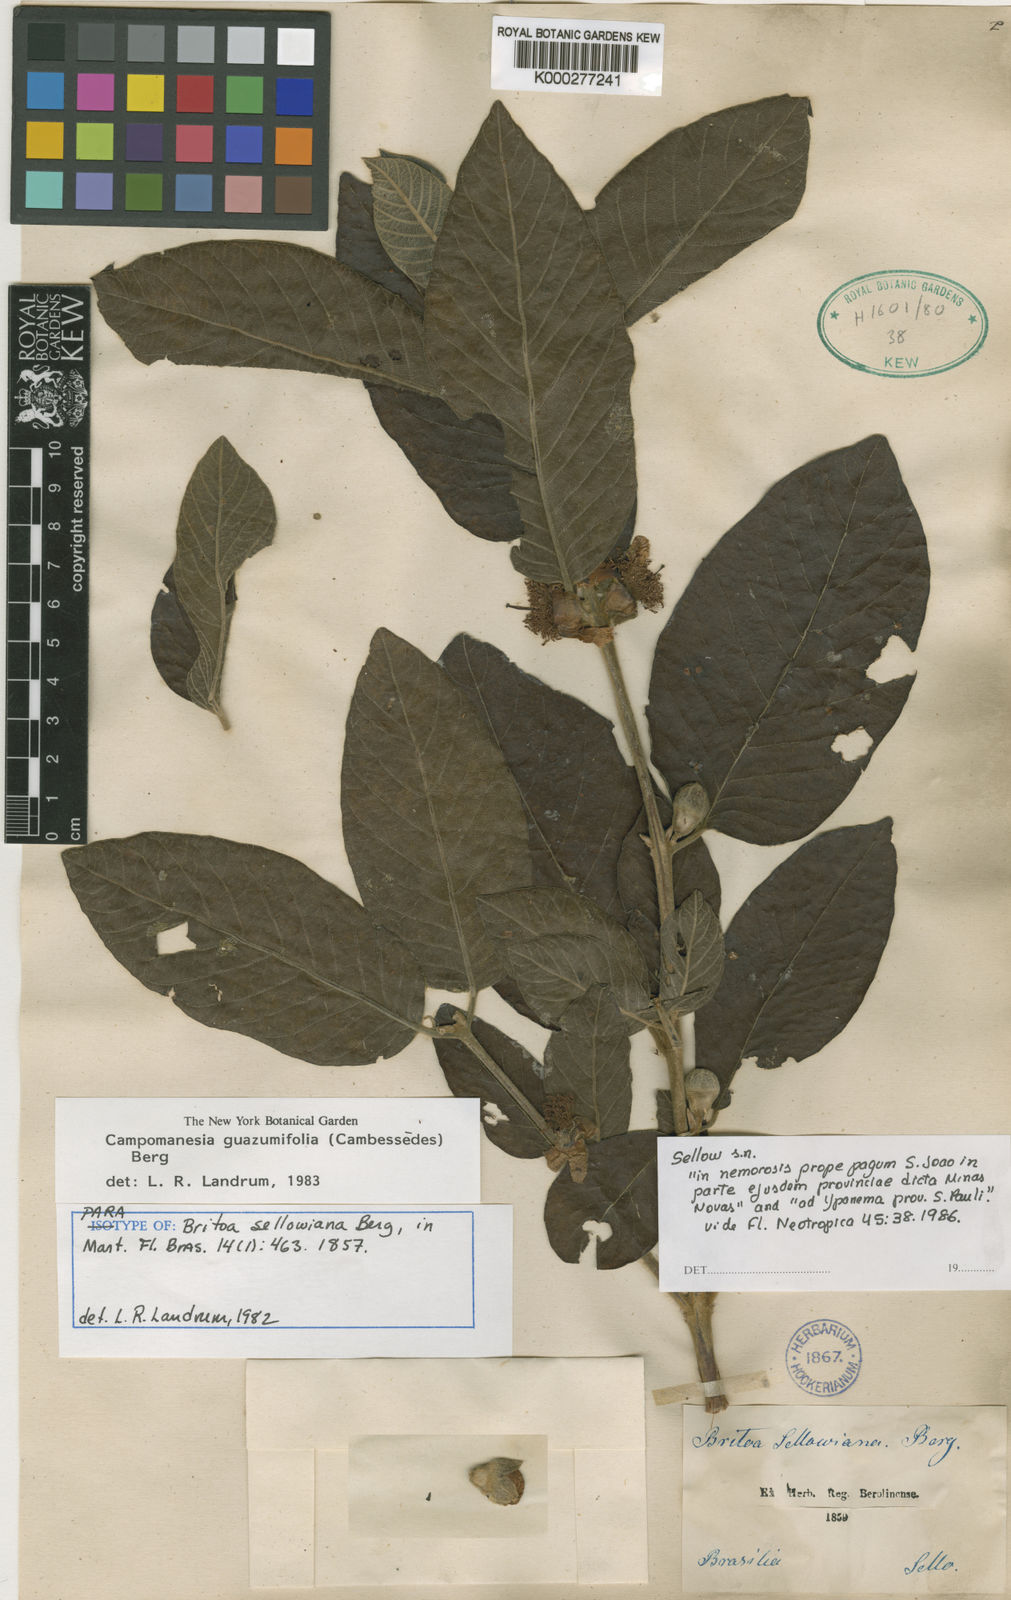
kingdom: Plantae
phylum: Tracheophyta
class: Magnoliopsida
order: Myrtales
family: Myrtaceae
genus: Campomanesia
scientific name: Campomanesia guazumifolia
